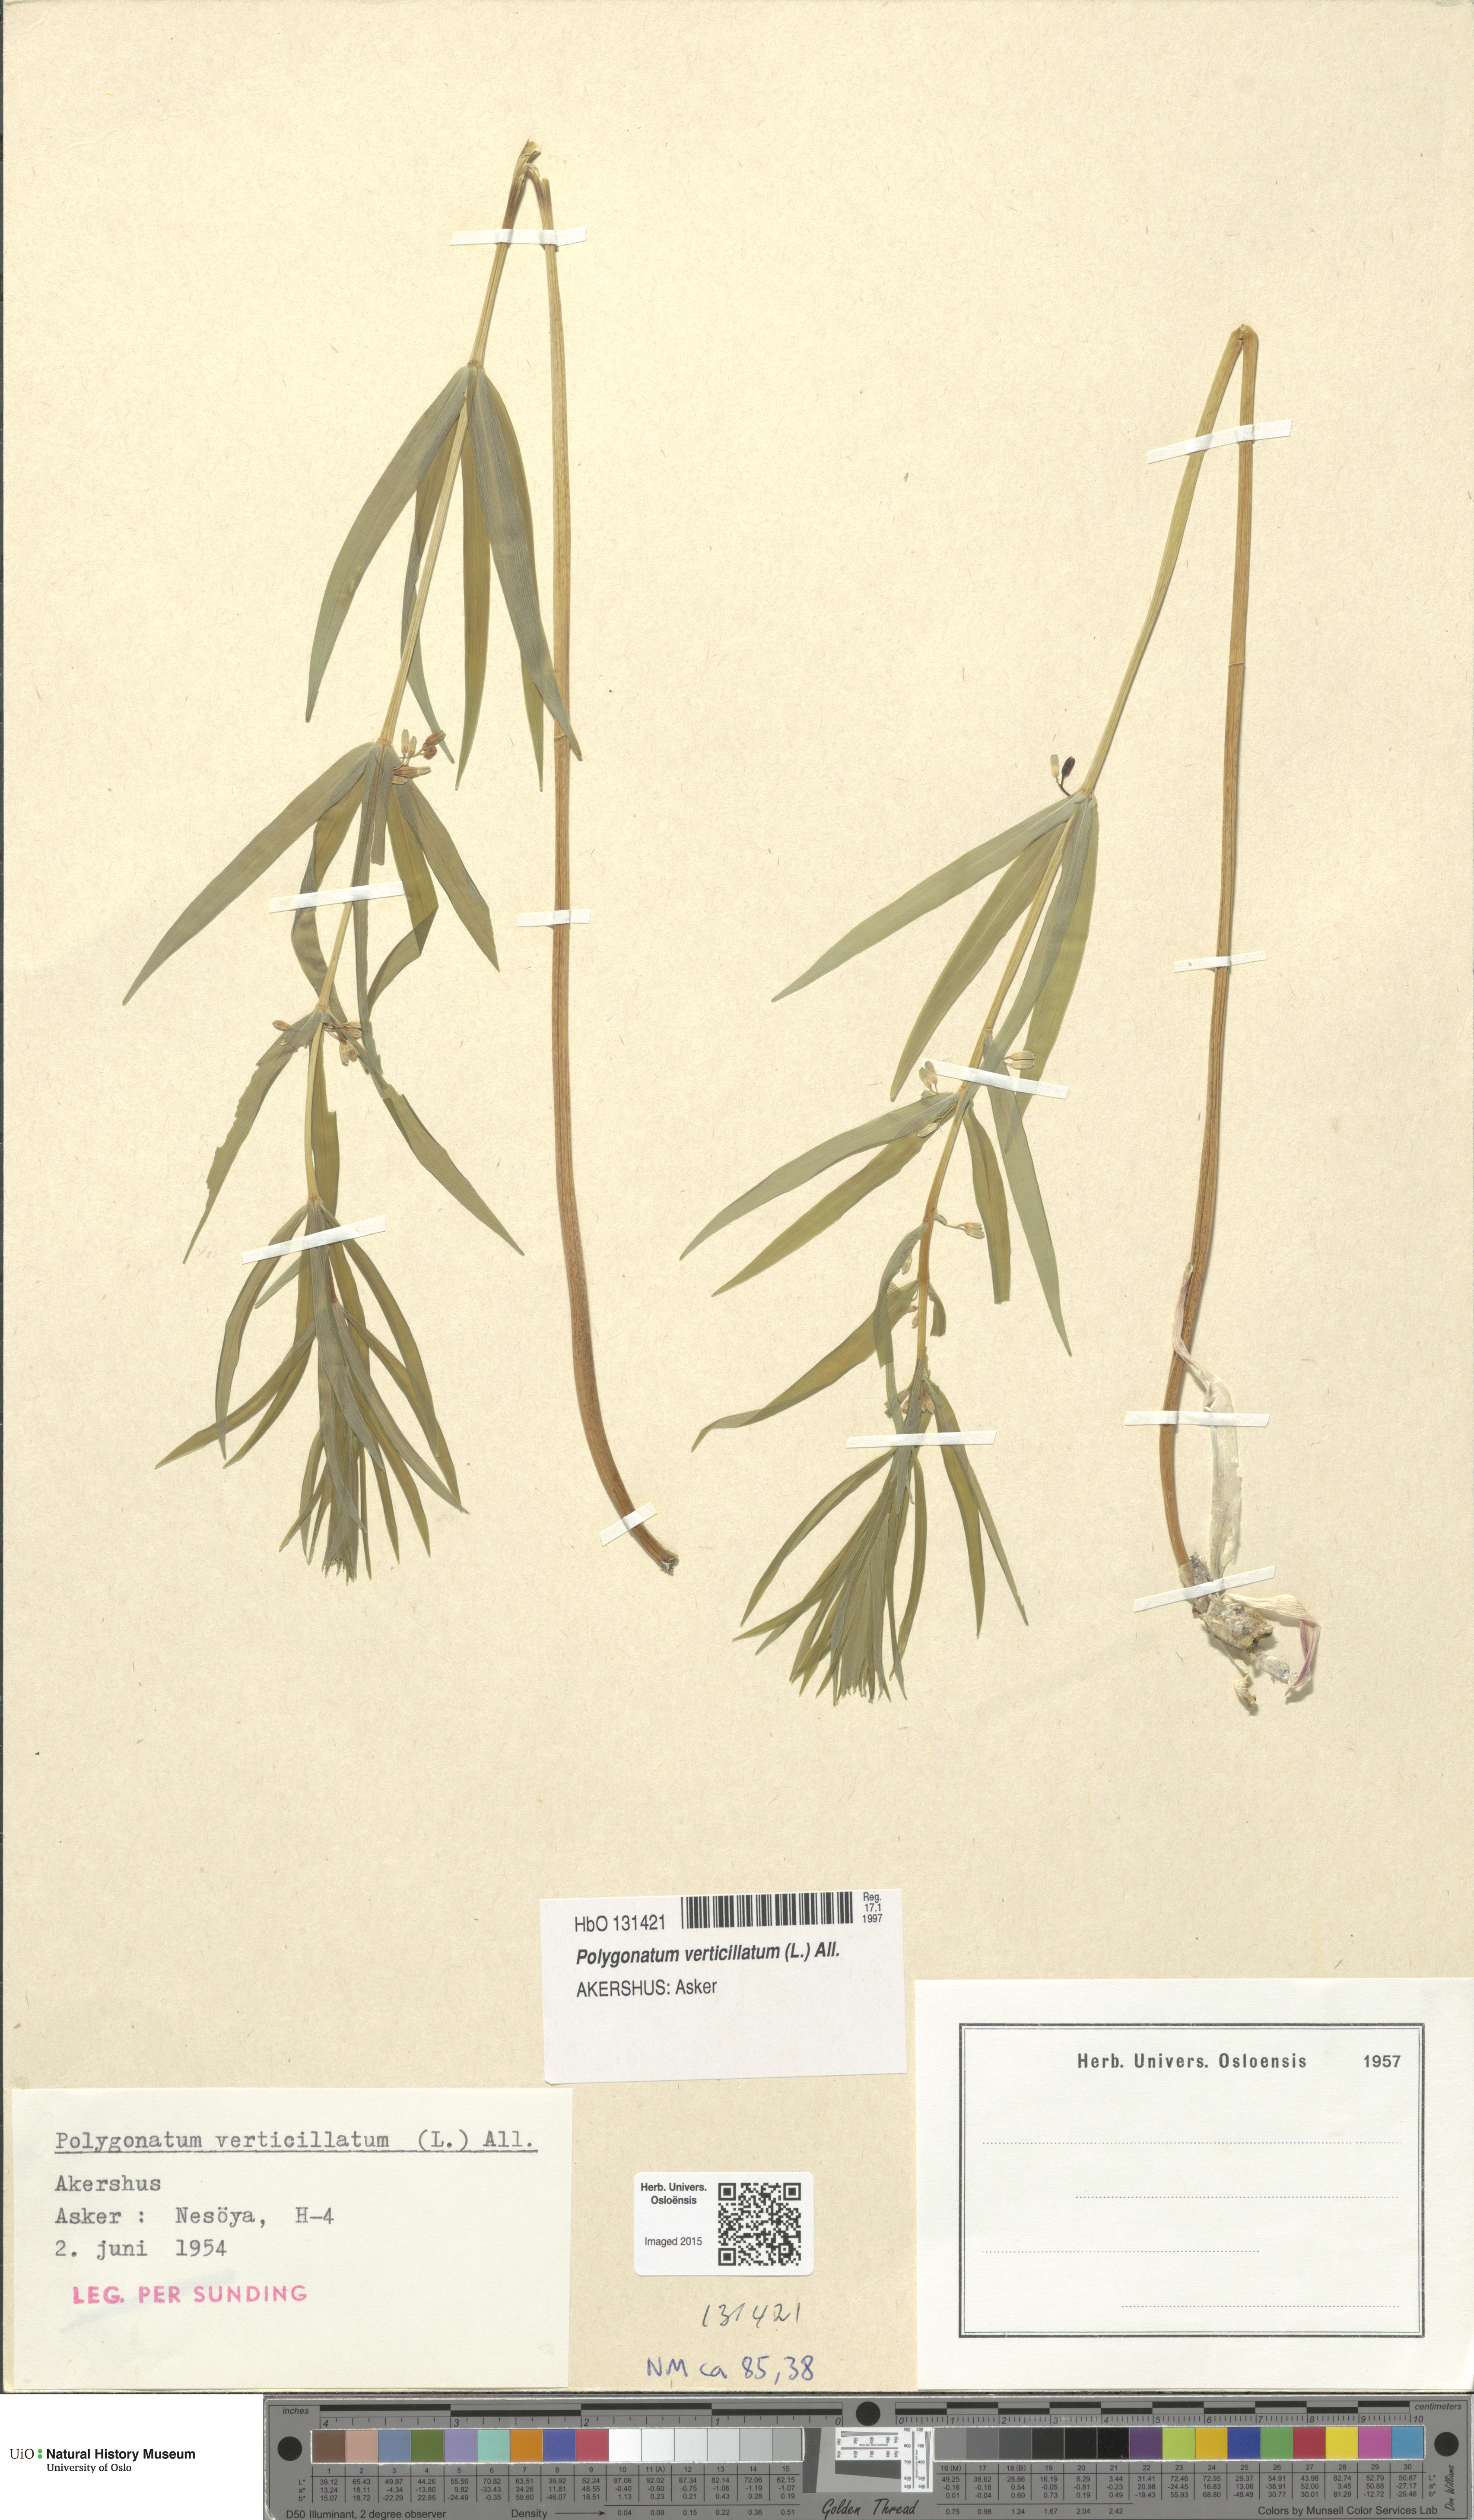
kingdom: Plantae
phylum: Tracheophyta
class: Liliopsida
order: Asparagales
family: Asparagaceae
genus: Polygonatum
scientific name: Polygonatum verticillatum
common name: Whorled solomon's-seal
